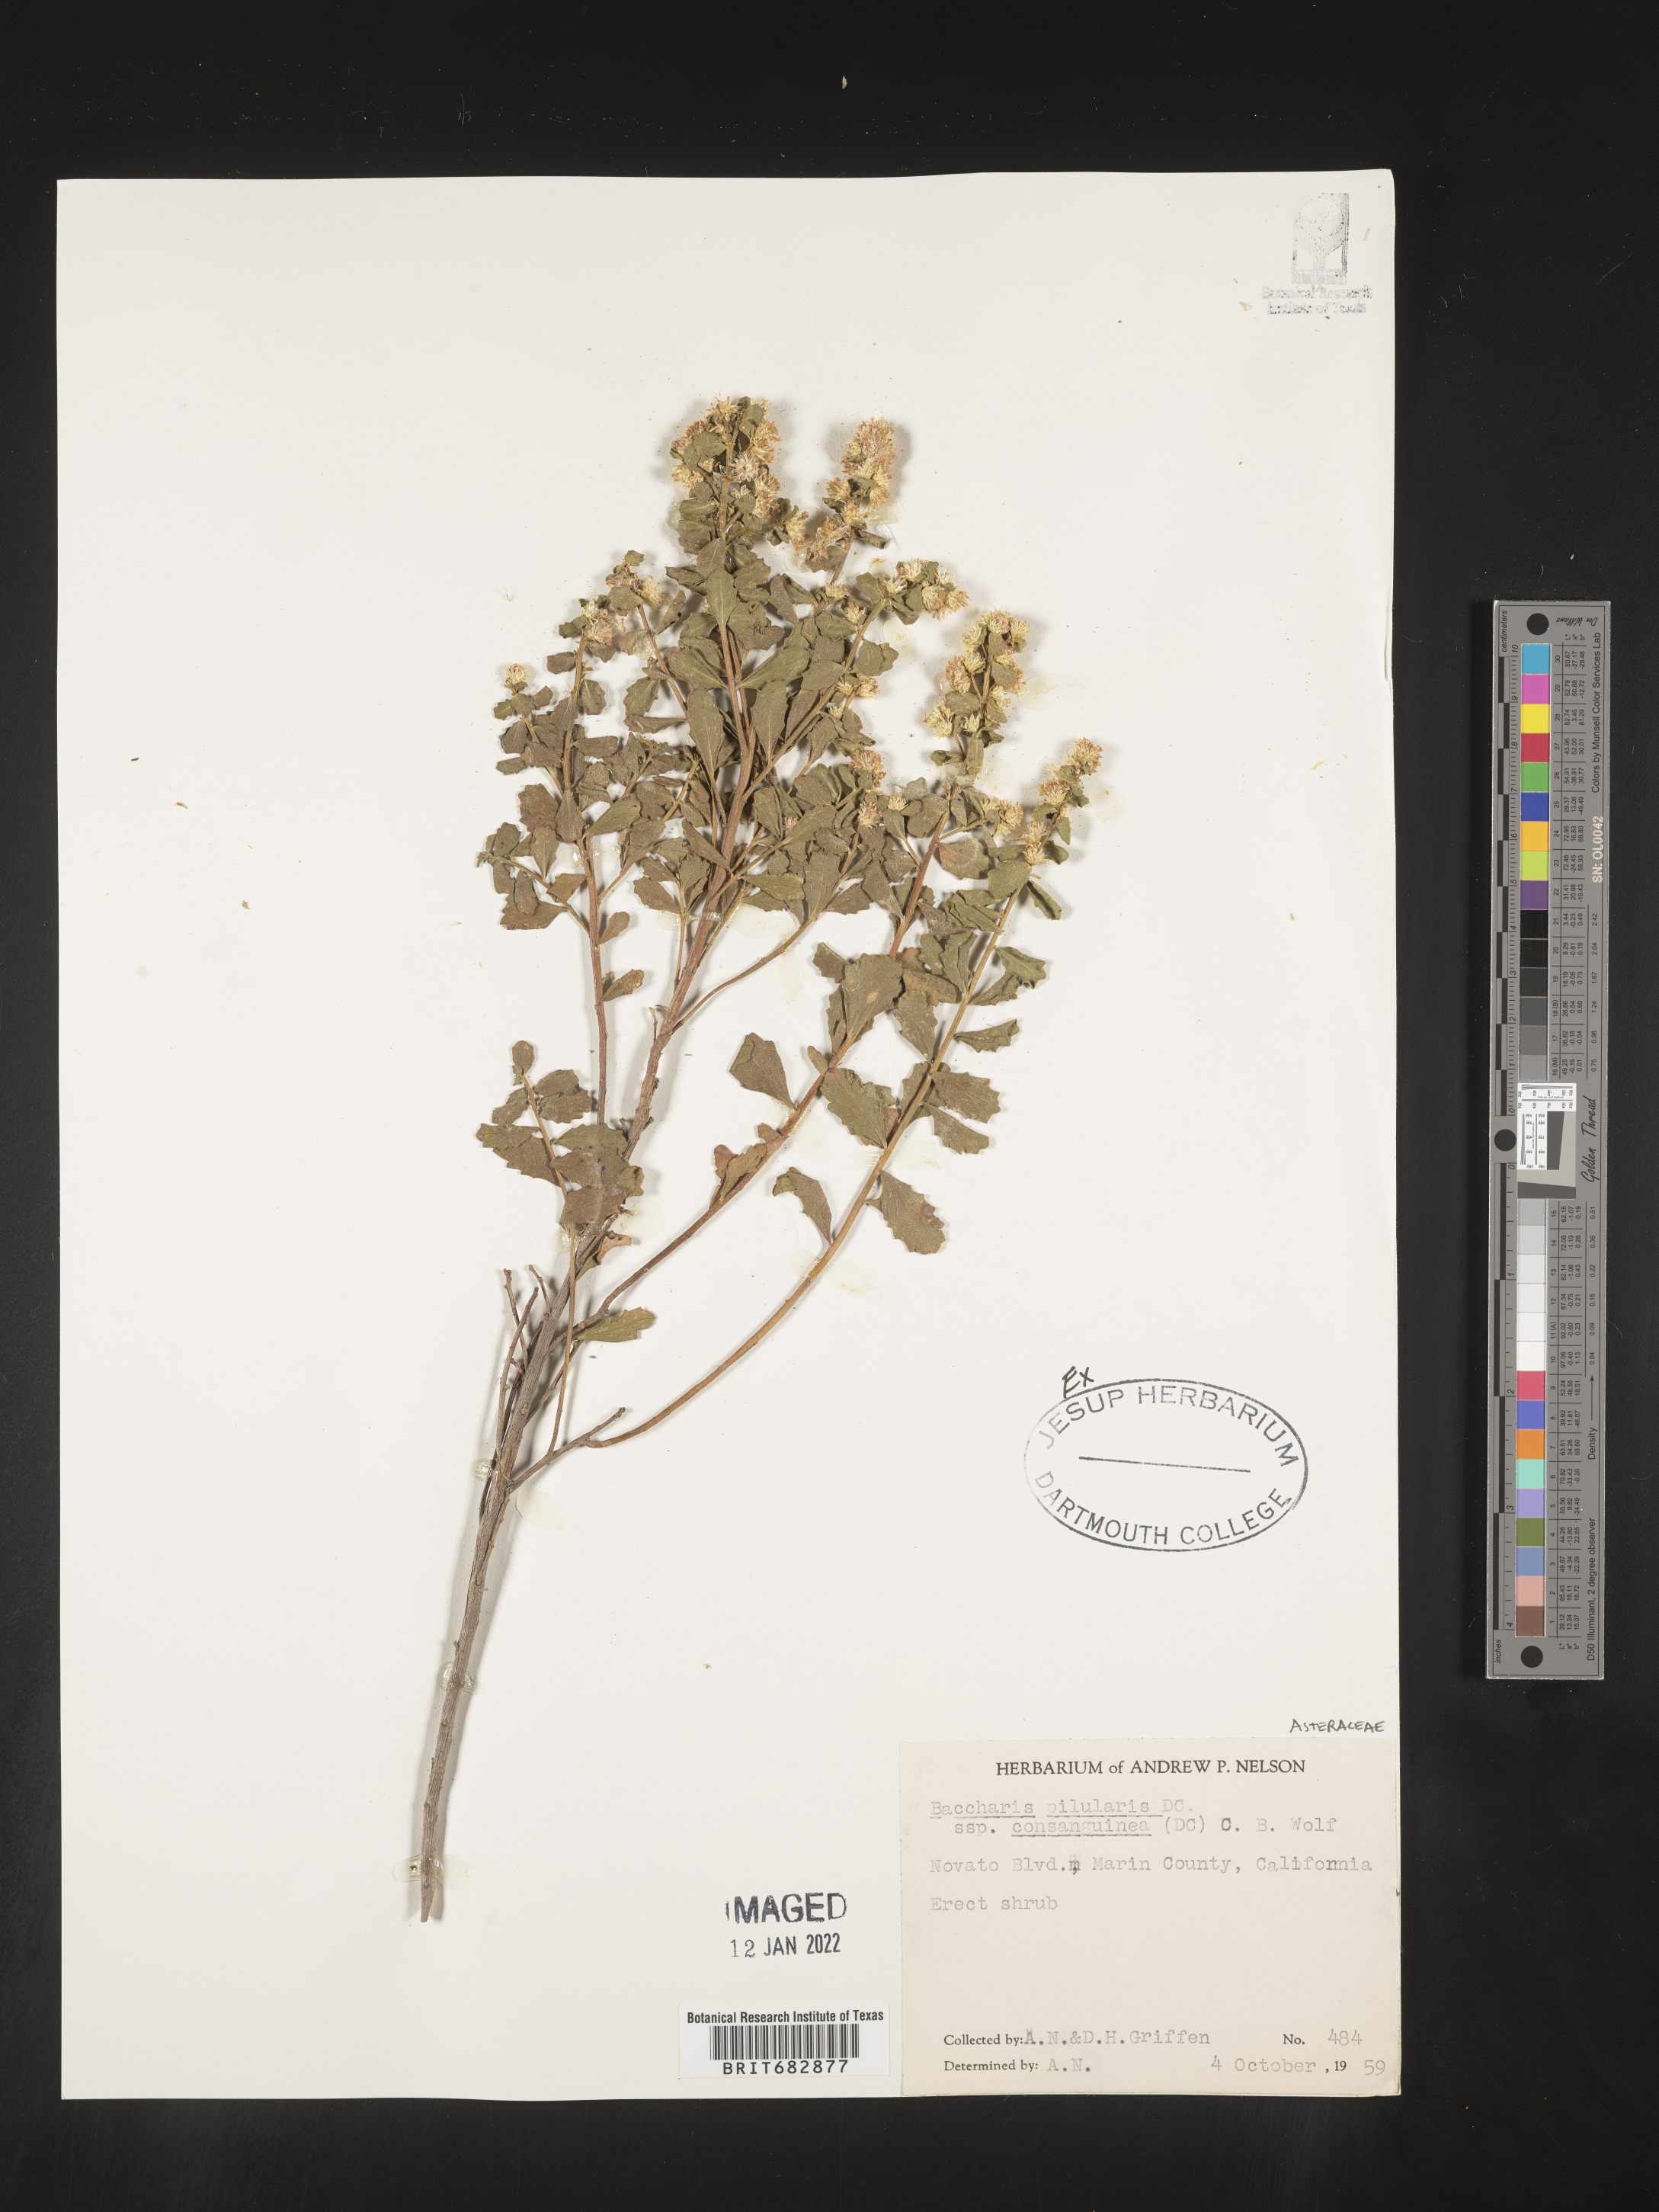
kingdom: Plantae
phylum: Tracheophyta
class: Magnoliopsida
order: Asterales
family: Asteraceae
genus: Baccharis
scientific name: Baccharis pilularis
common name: Coyotebrush
